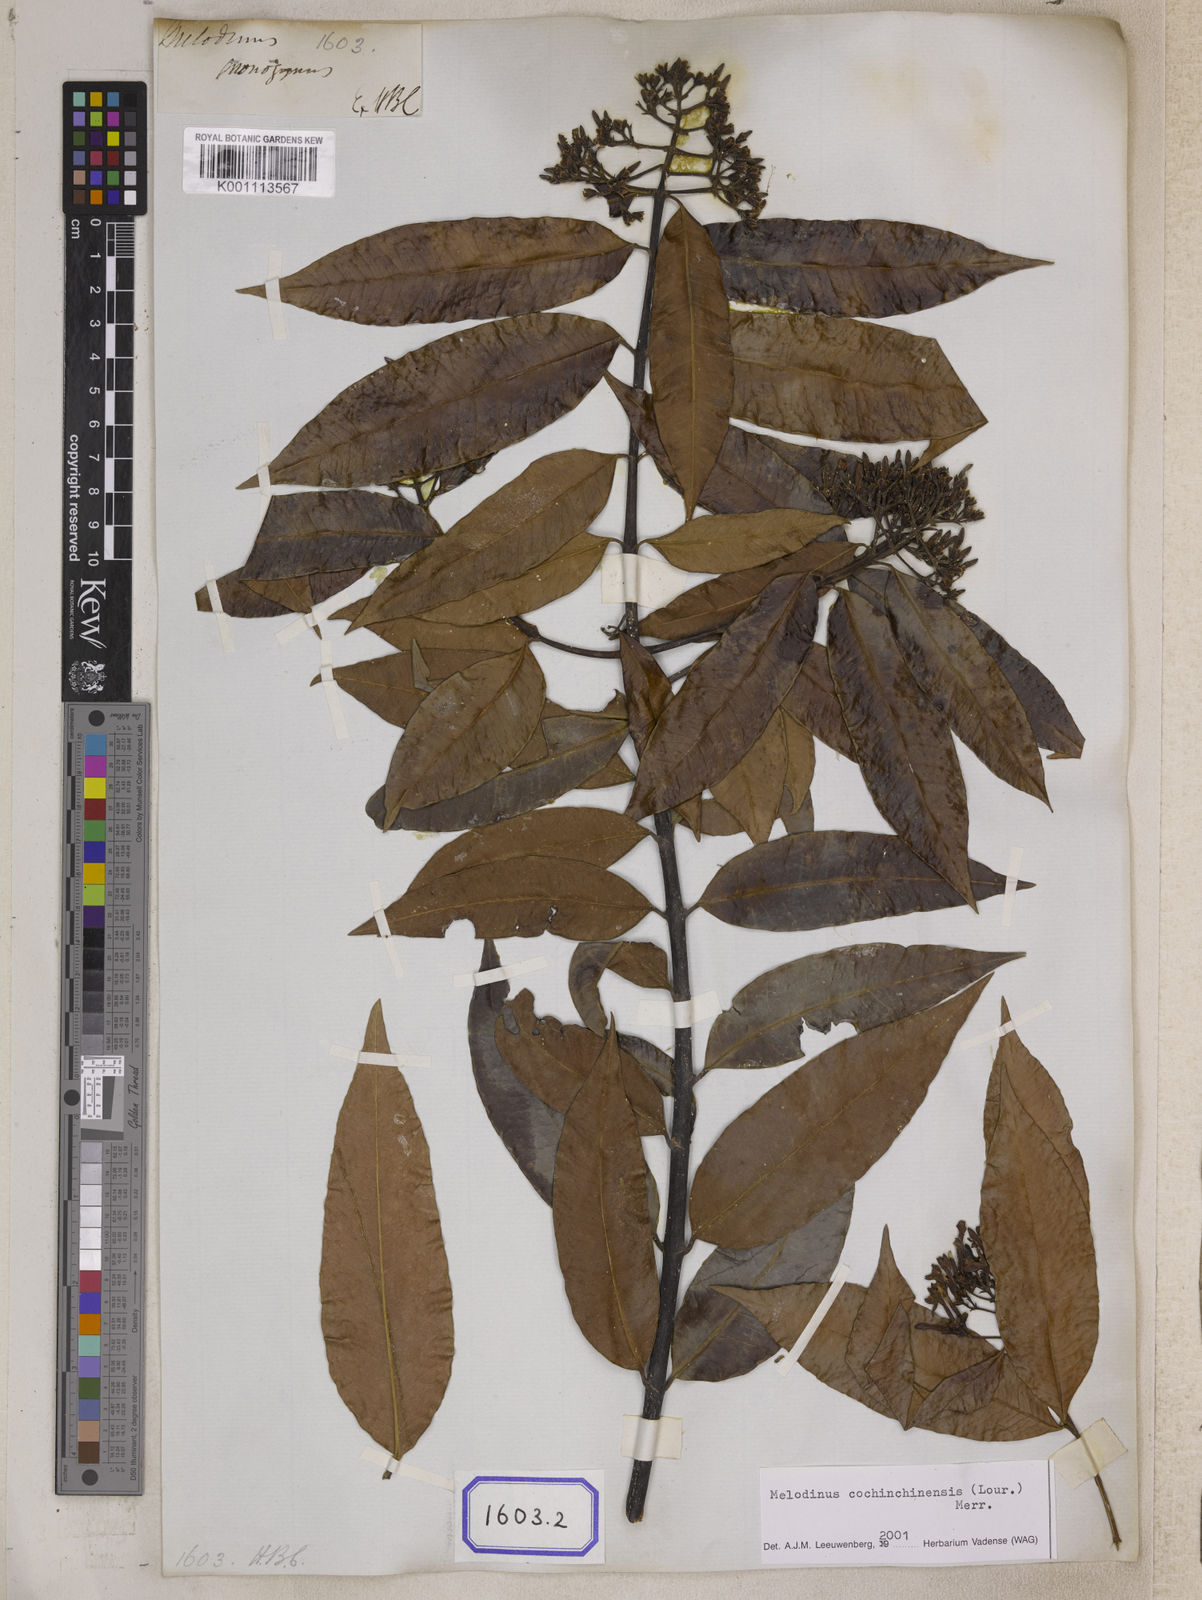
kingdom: Plantae
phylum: Tracheophyta
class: Magnoliopsida
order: Gentianales
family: Apocynaceae
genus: Melodinus
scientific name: Melodinus
